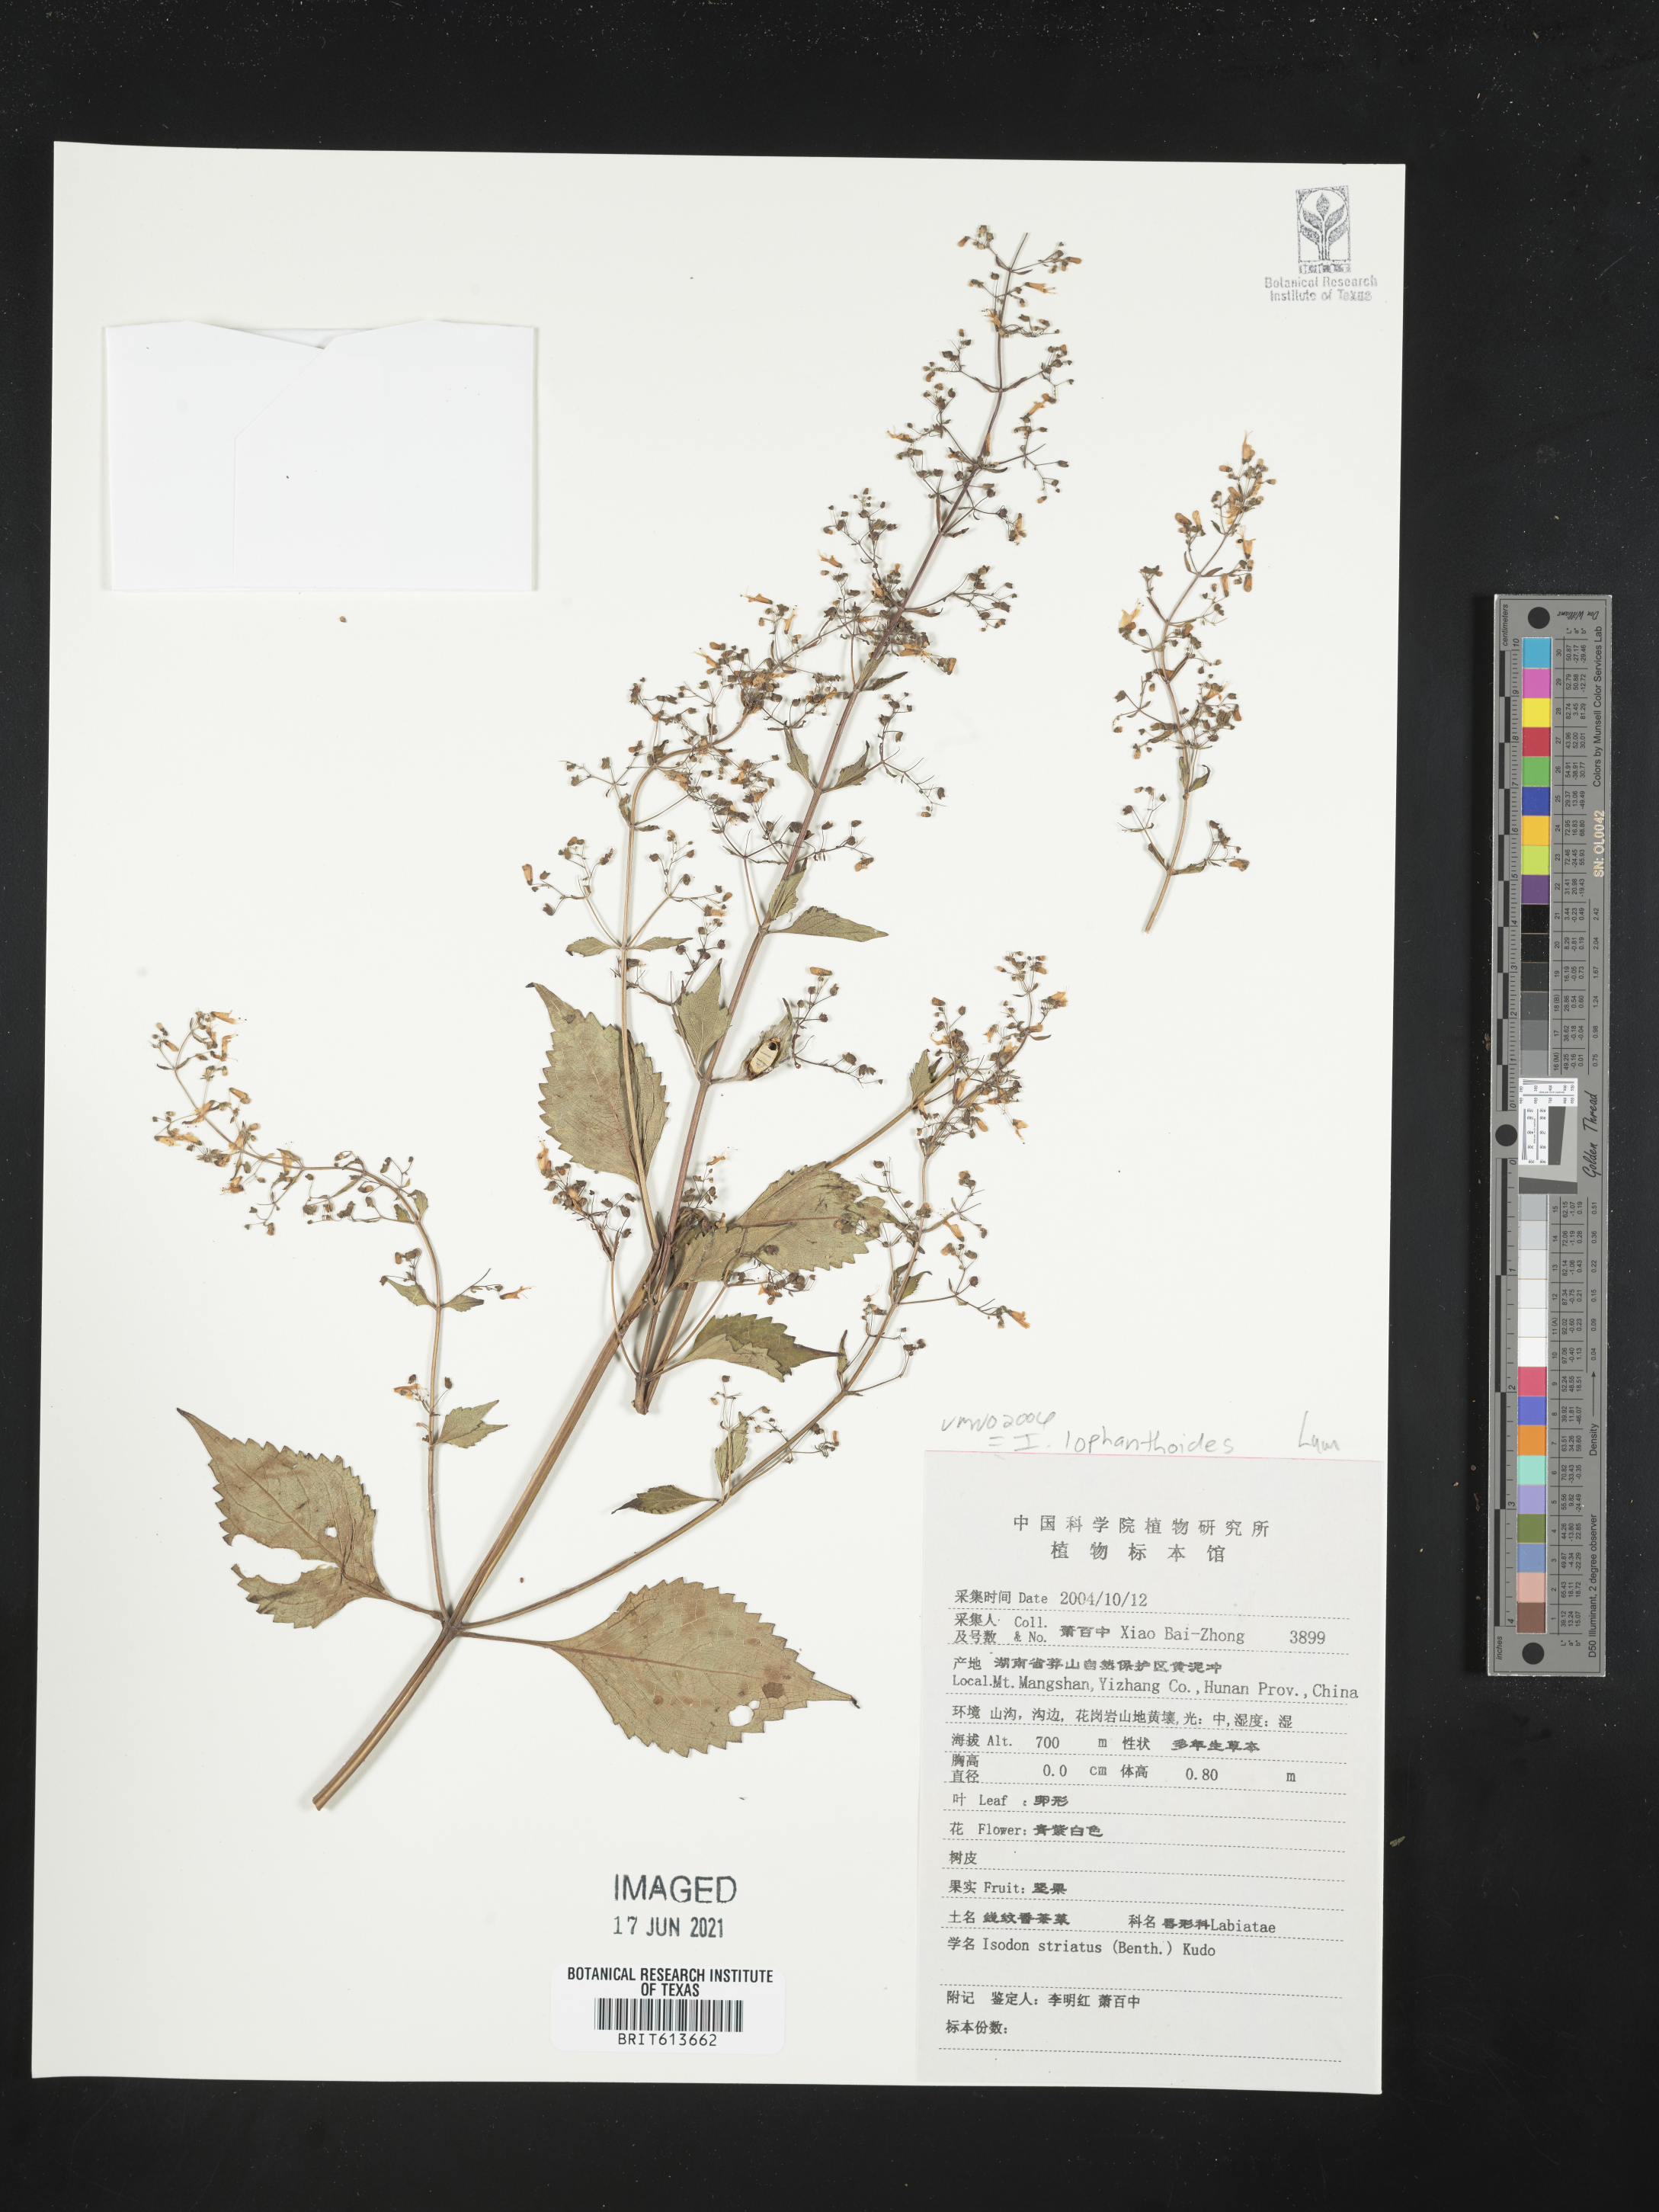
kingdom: Plantae
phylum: Tracheophyta
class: Magnoliopsida
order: Lamiales
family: Lamiaceae
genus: Isodon
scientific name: Isodon lophanthoides
